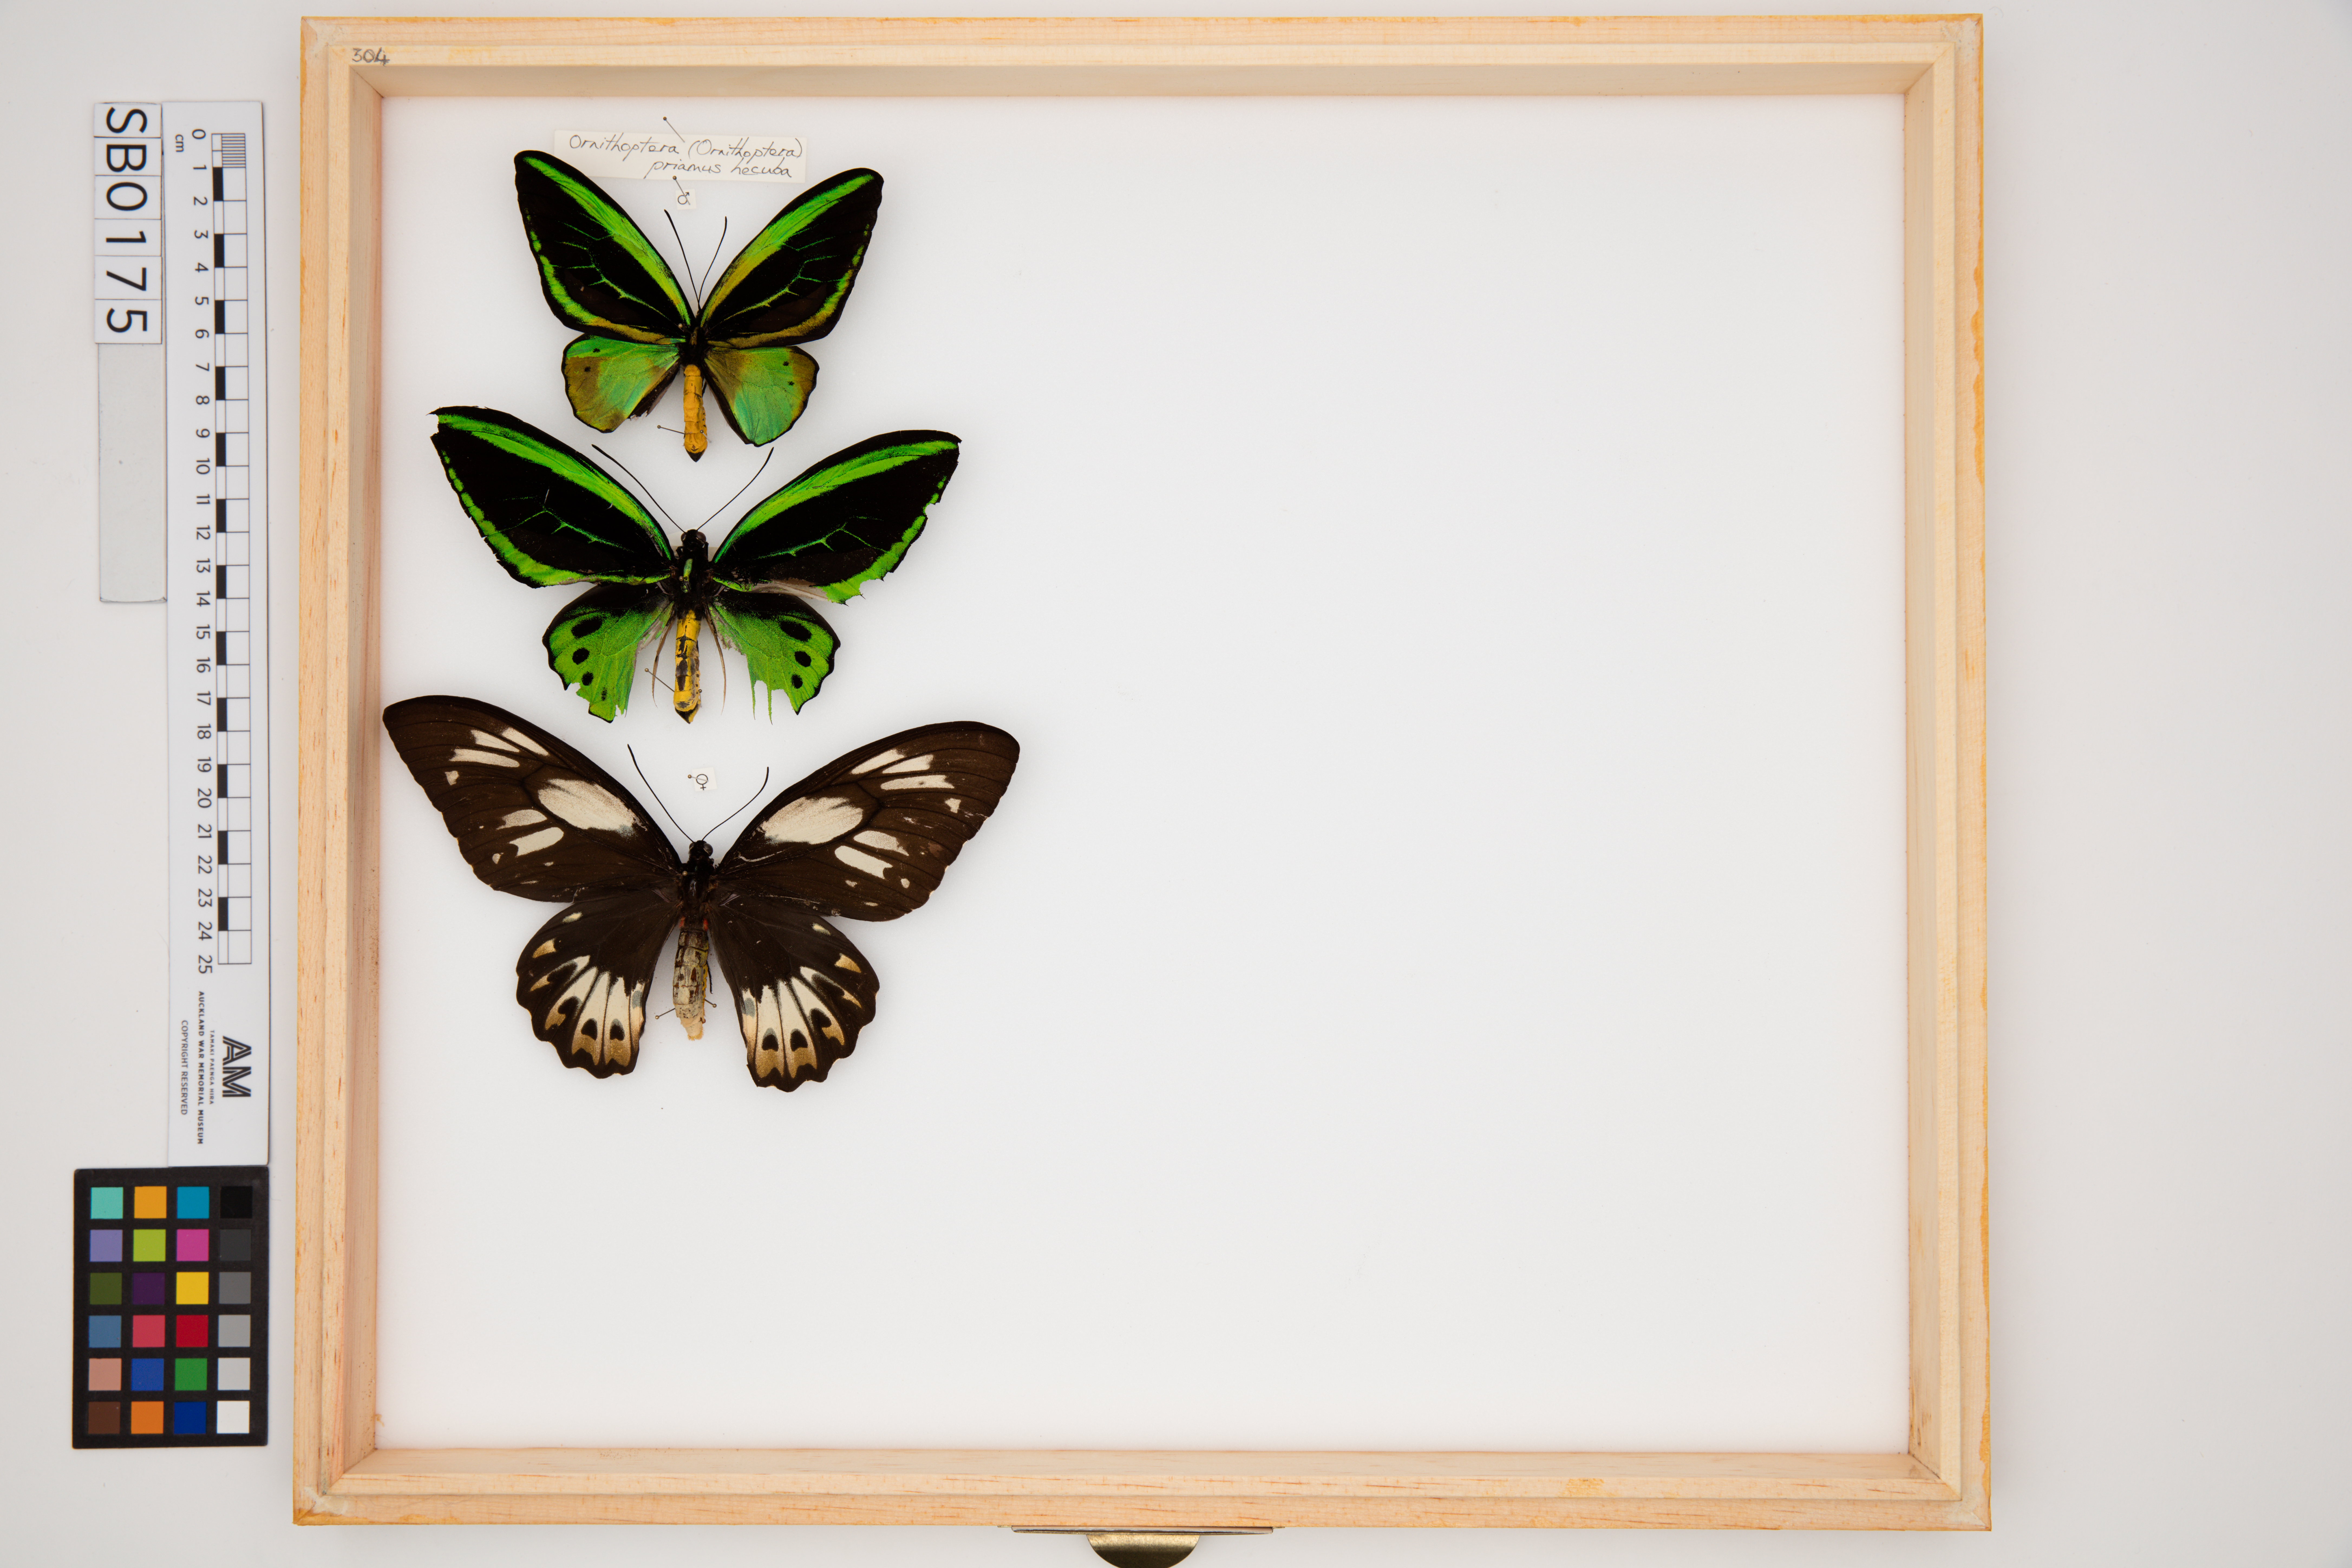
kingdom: Animalia
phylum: Arthropoda
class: Insecta
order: Lepidoptera
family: Papilionidae
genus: Ornithoptera
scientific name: Ornithoptera priamus
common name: Cape york birdwing
